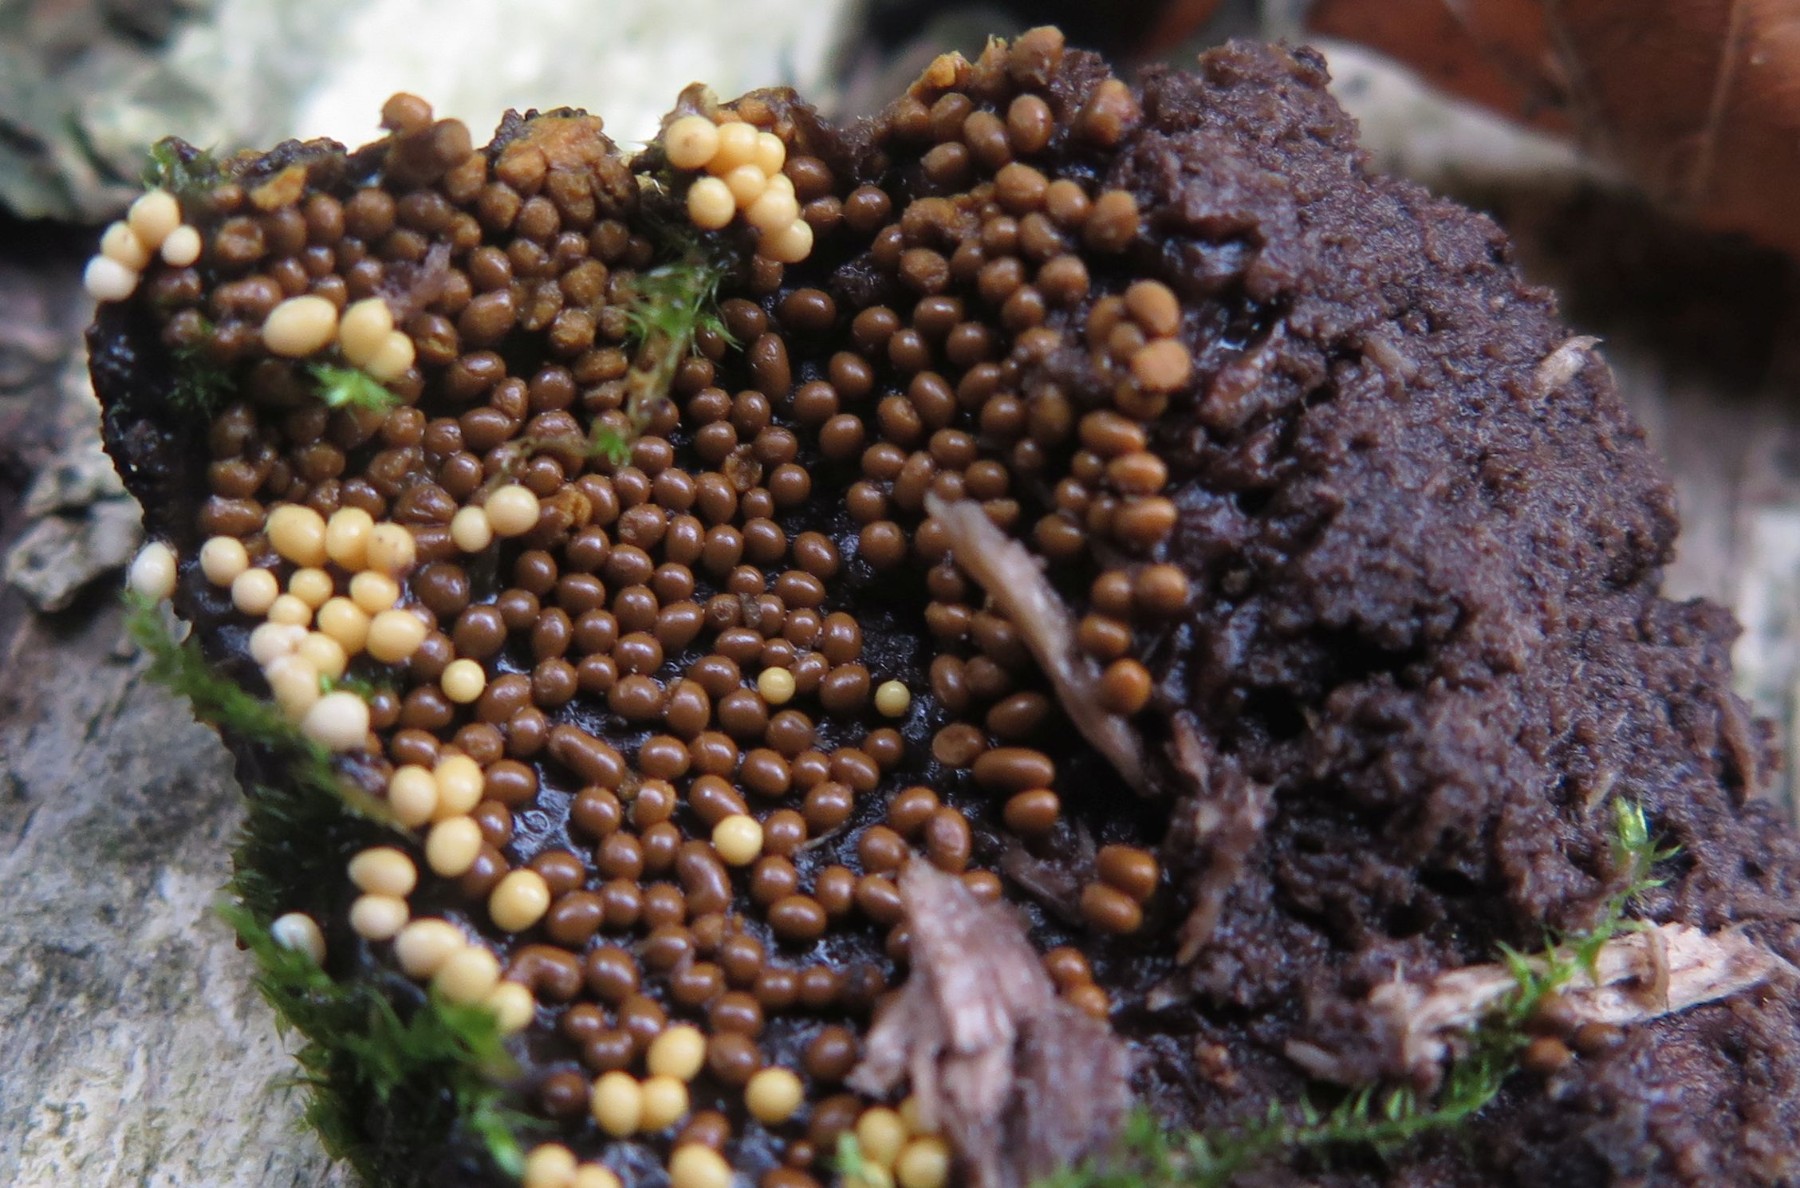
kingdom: Protozoa
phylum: Mycetozoa
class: Myxomycetes
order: Trichiales
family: Trichiaceae
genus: Trichia
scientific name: Trichia
